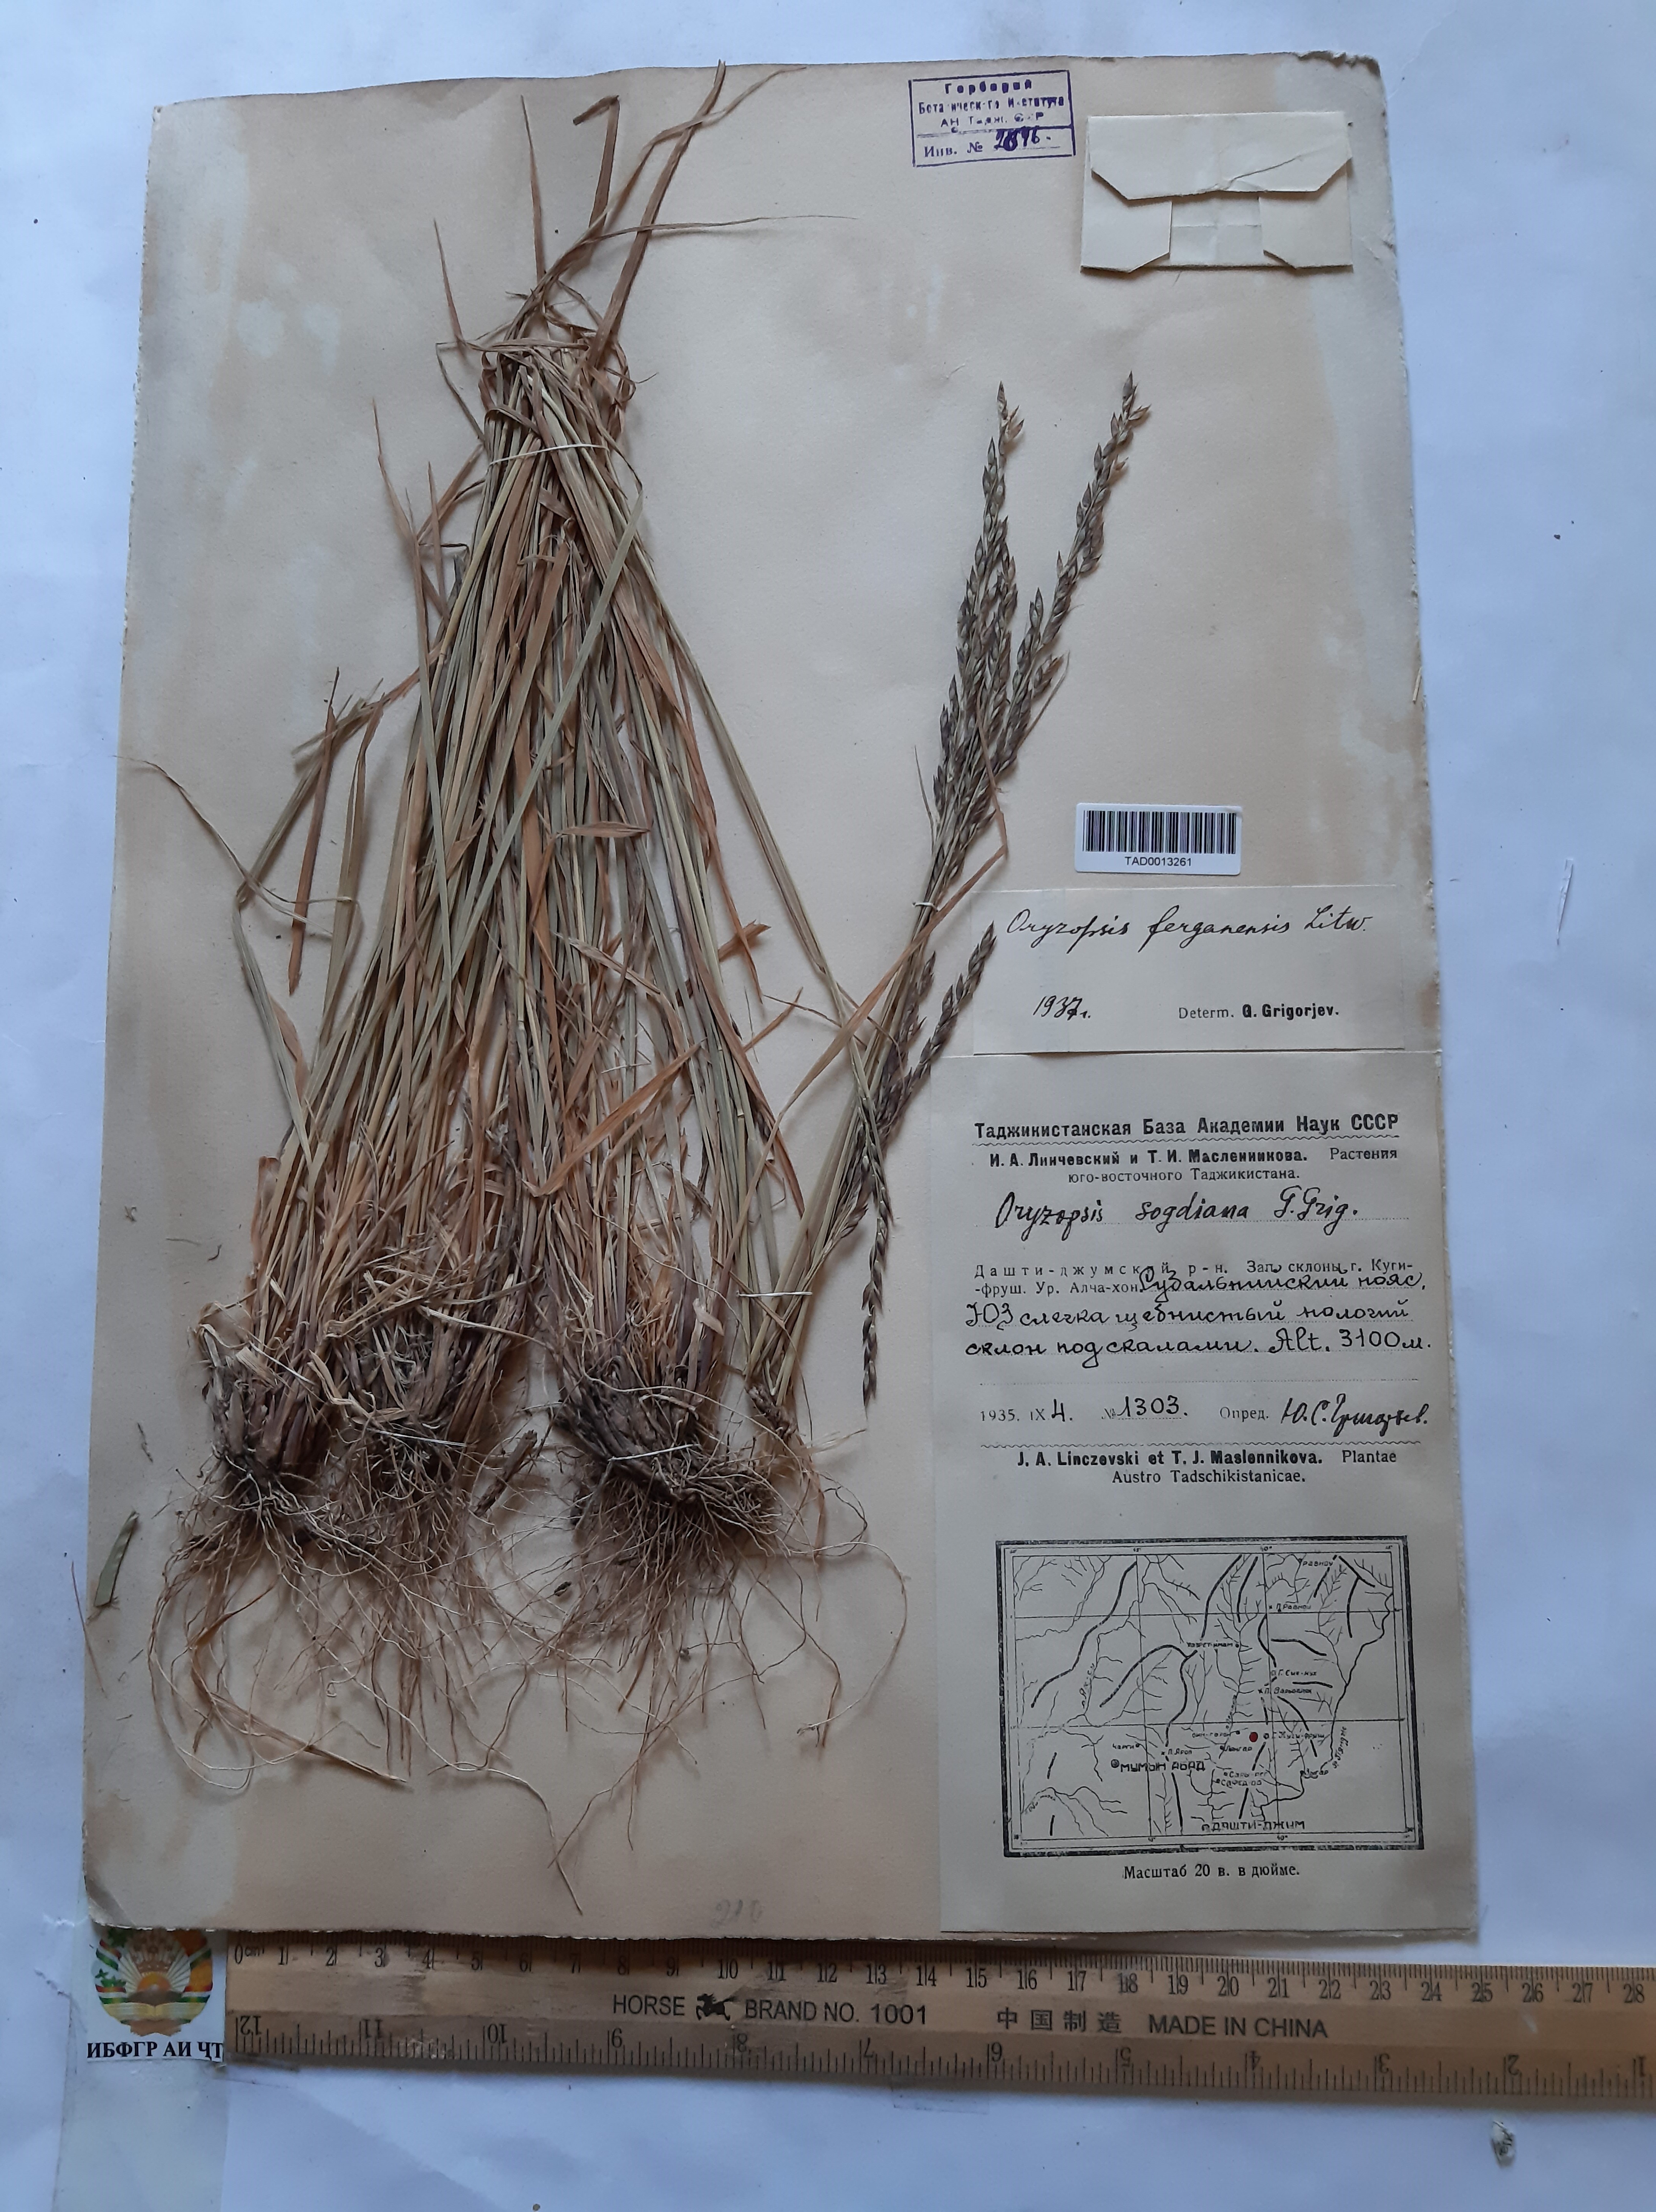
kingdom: Plantae
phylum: Tracheophyta
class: Liliopsida
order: Poales
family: Poaceae
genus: Piptatherum
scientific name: Piptatherum ferganense
